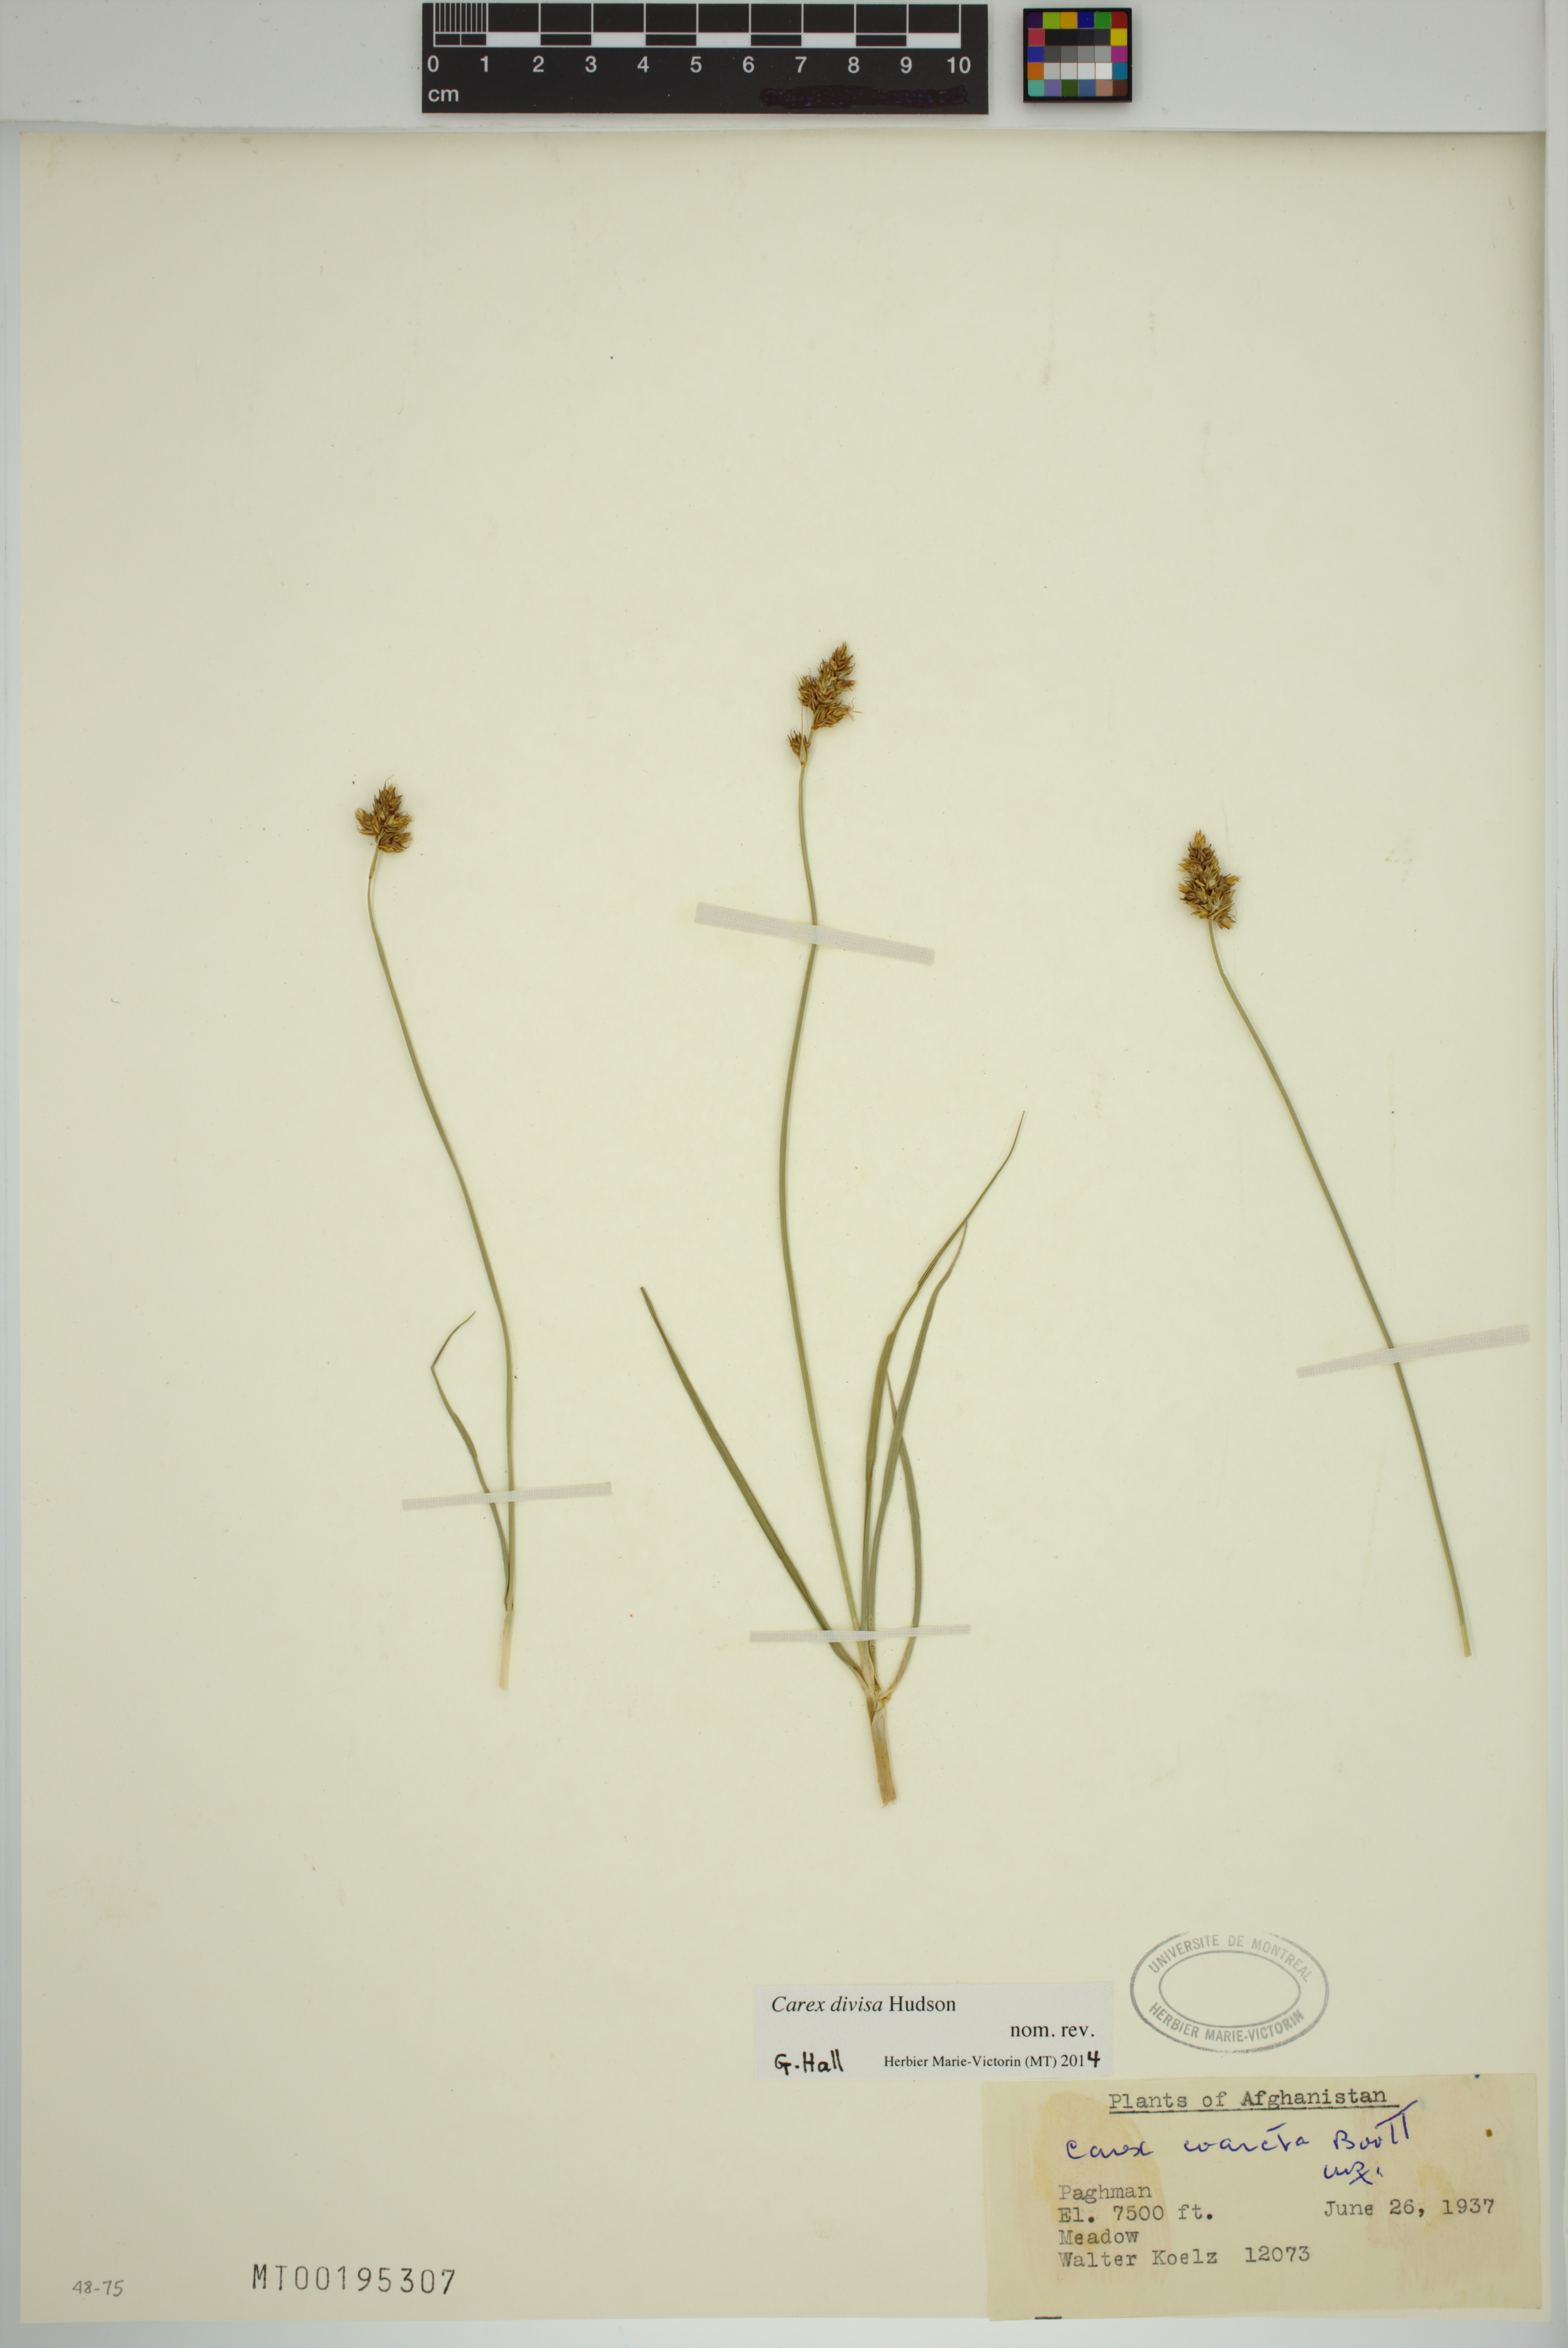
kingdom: Plantae
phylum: Tracheophyta
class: Liliopsida
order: Poales
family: Cyperaceae
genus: Carex
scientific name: Carex divisa
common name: Divided sedge
